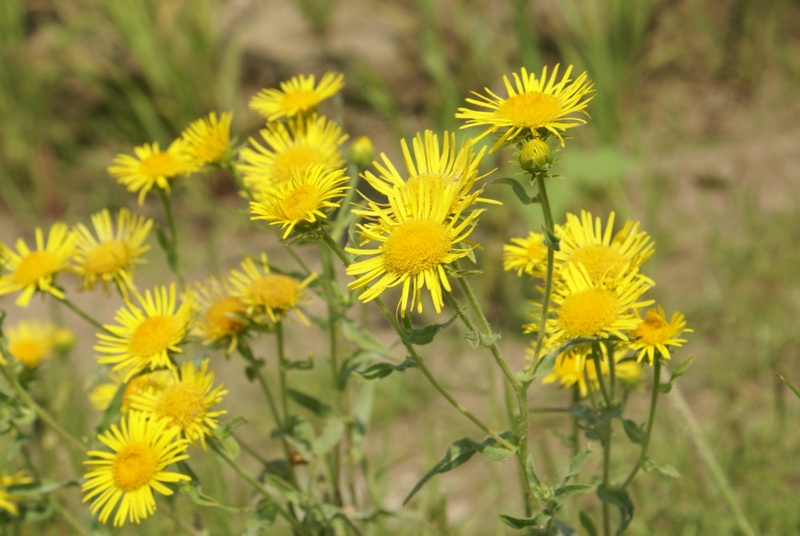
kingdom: Plantae
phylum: Tracheophyta
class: Magnoliopsida
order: Asterales
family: Asteraceae
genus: Pentanema
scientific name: Pentanema salicinum
